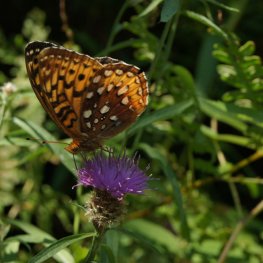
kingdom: Animalia
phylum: Arthropoda
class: Insecta
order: Lepidoptera
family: Nymphalidae
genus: Speyeria
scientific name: Speyeria cybele
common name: Great Spangled Fritillary
